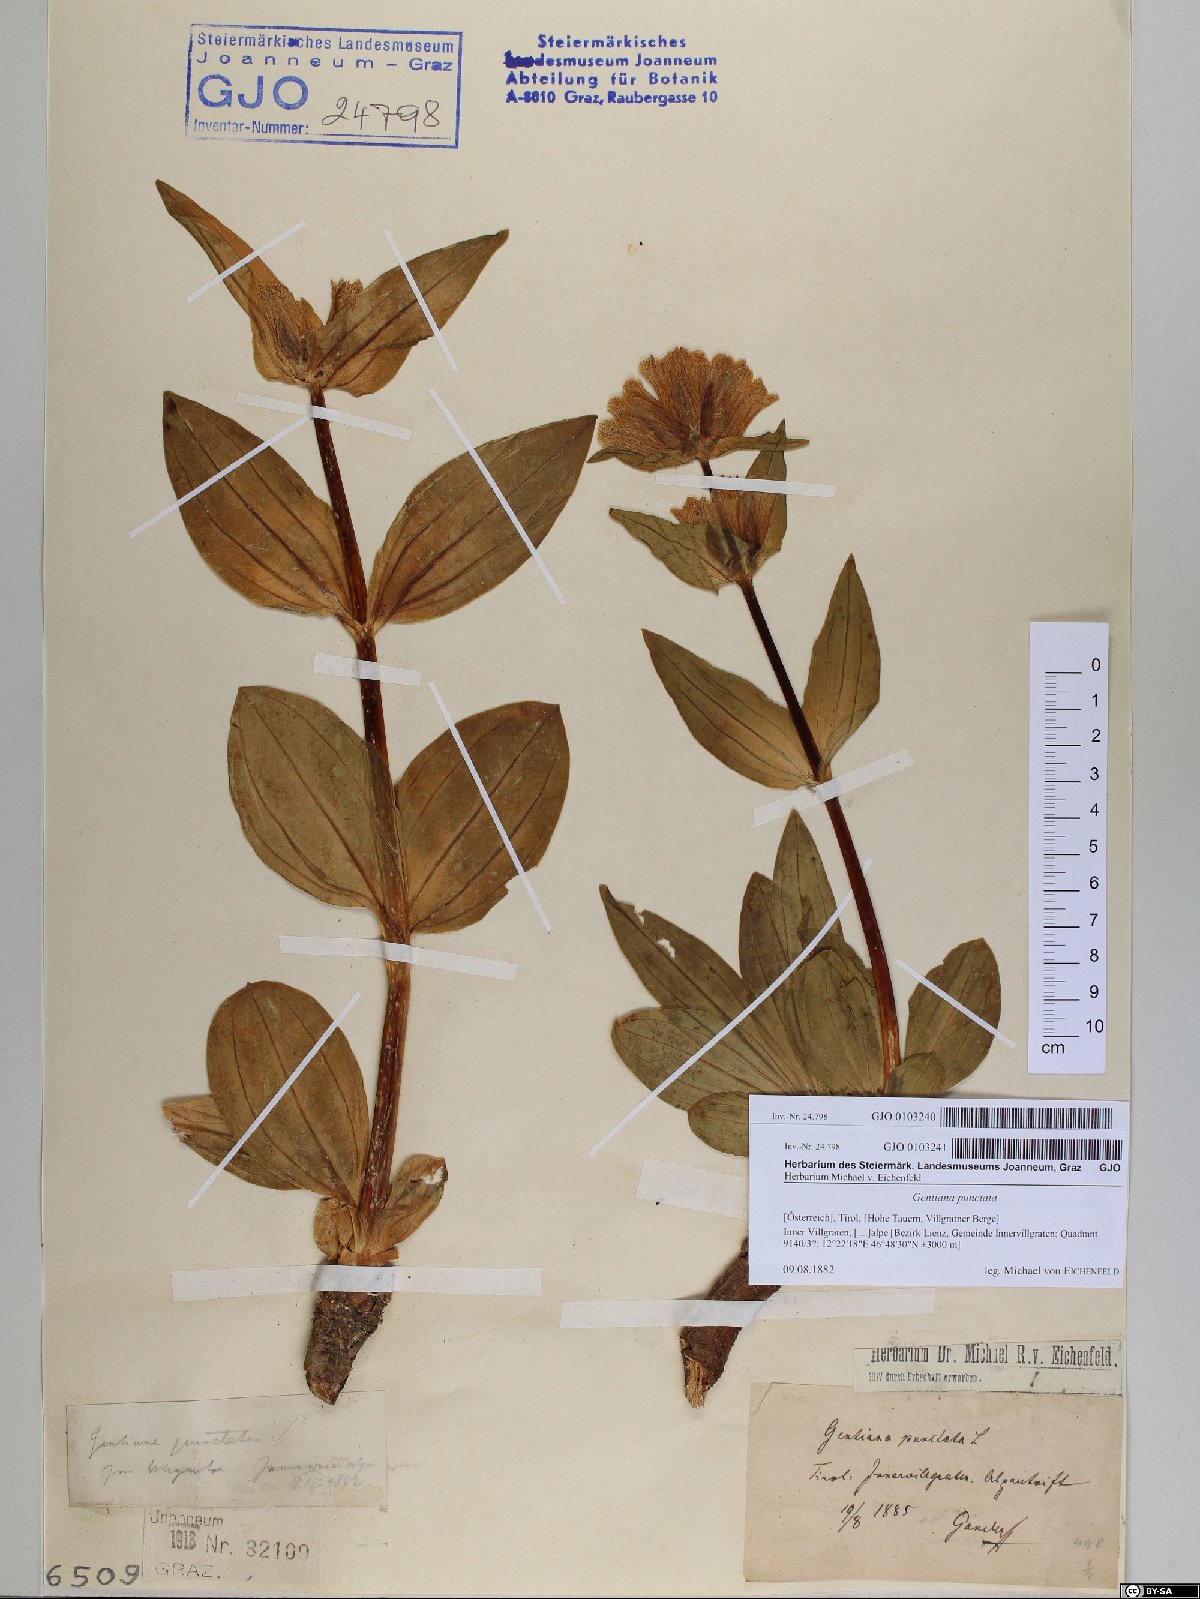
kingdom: Plantae
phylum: Tracheophyta
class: Magnoliopsida
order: Gentianales
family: Gentianaceae
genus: Gentiana
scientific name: Gentiana punctata
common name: Spotted gentian
